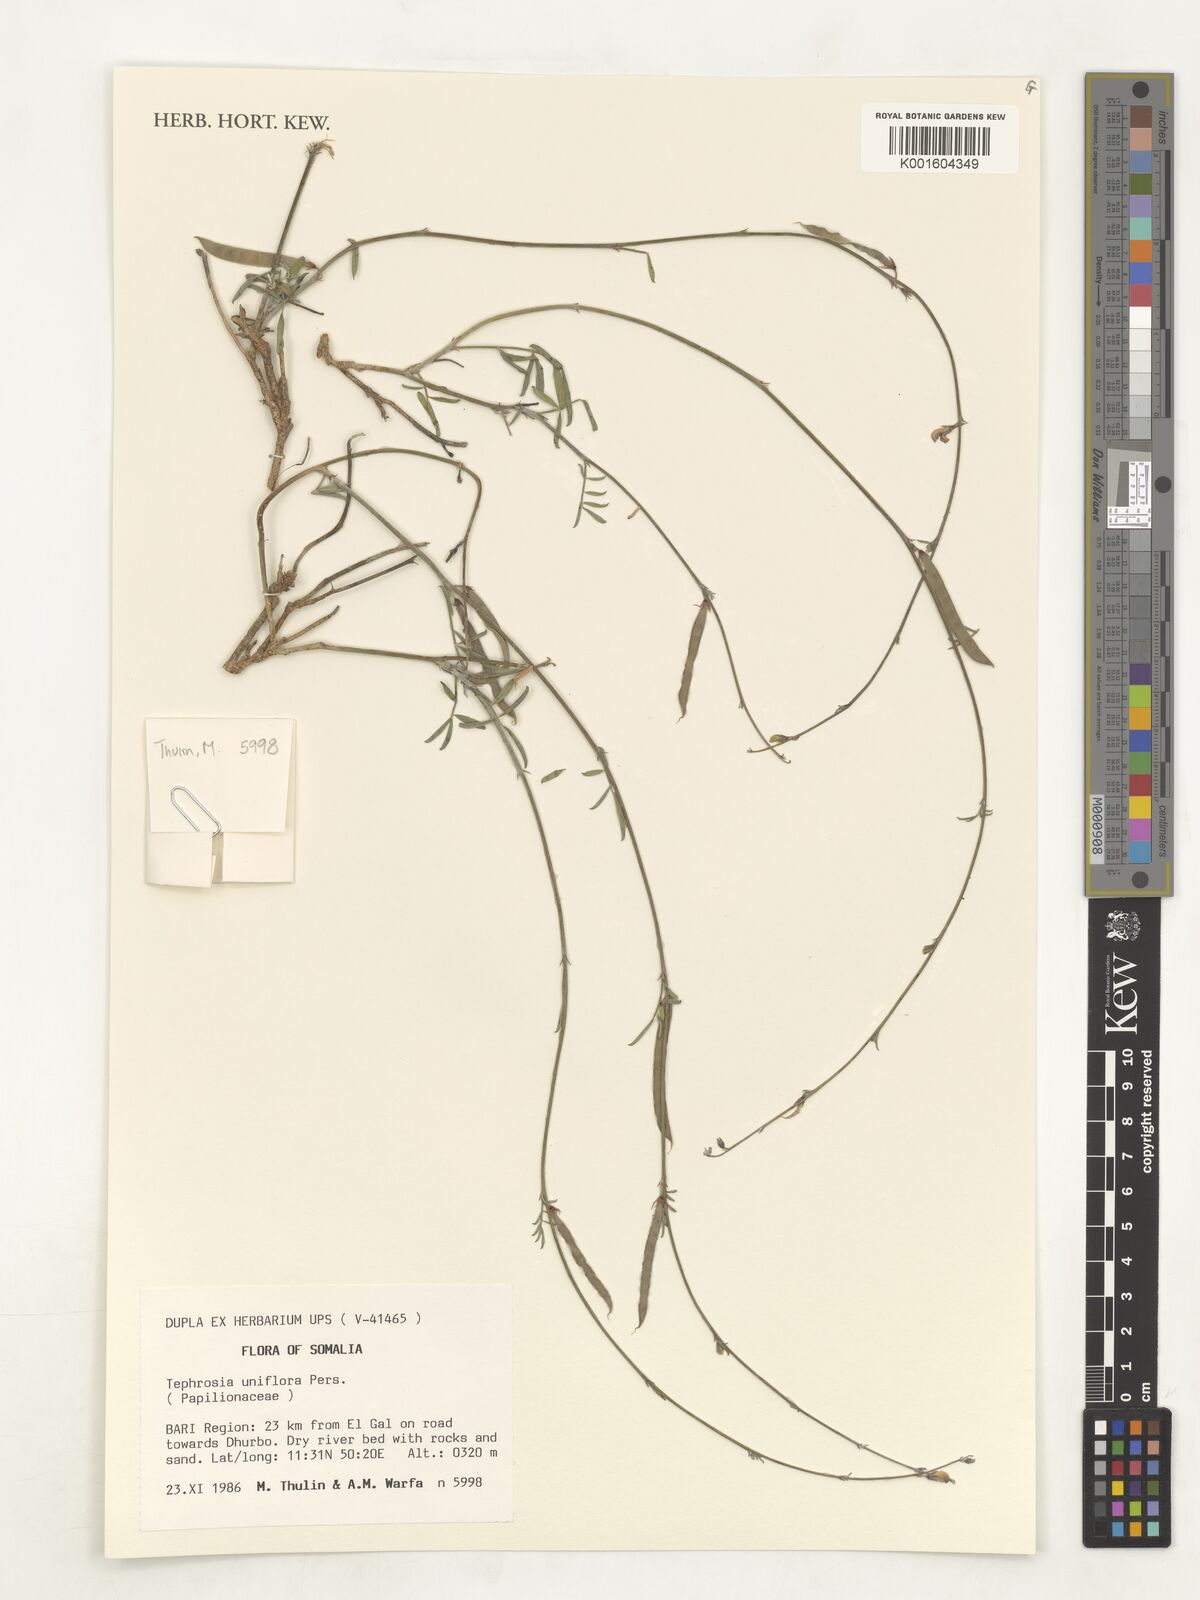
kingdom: Plantae
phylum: Tracheophyta
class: Magnoliopsida
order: Fabales
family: Fabaceae
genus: Tephrosia
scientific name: Tephrosia uniflora
